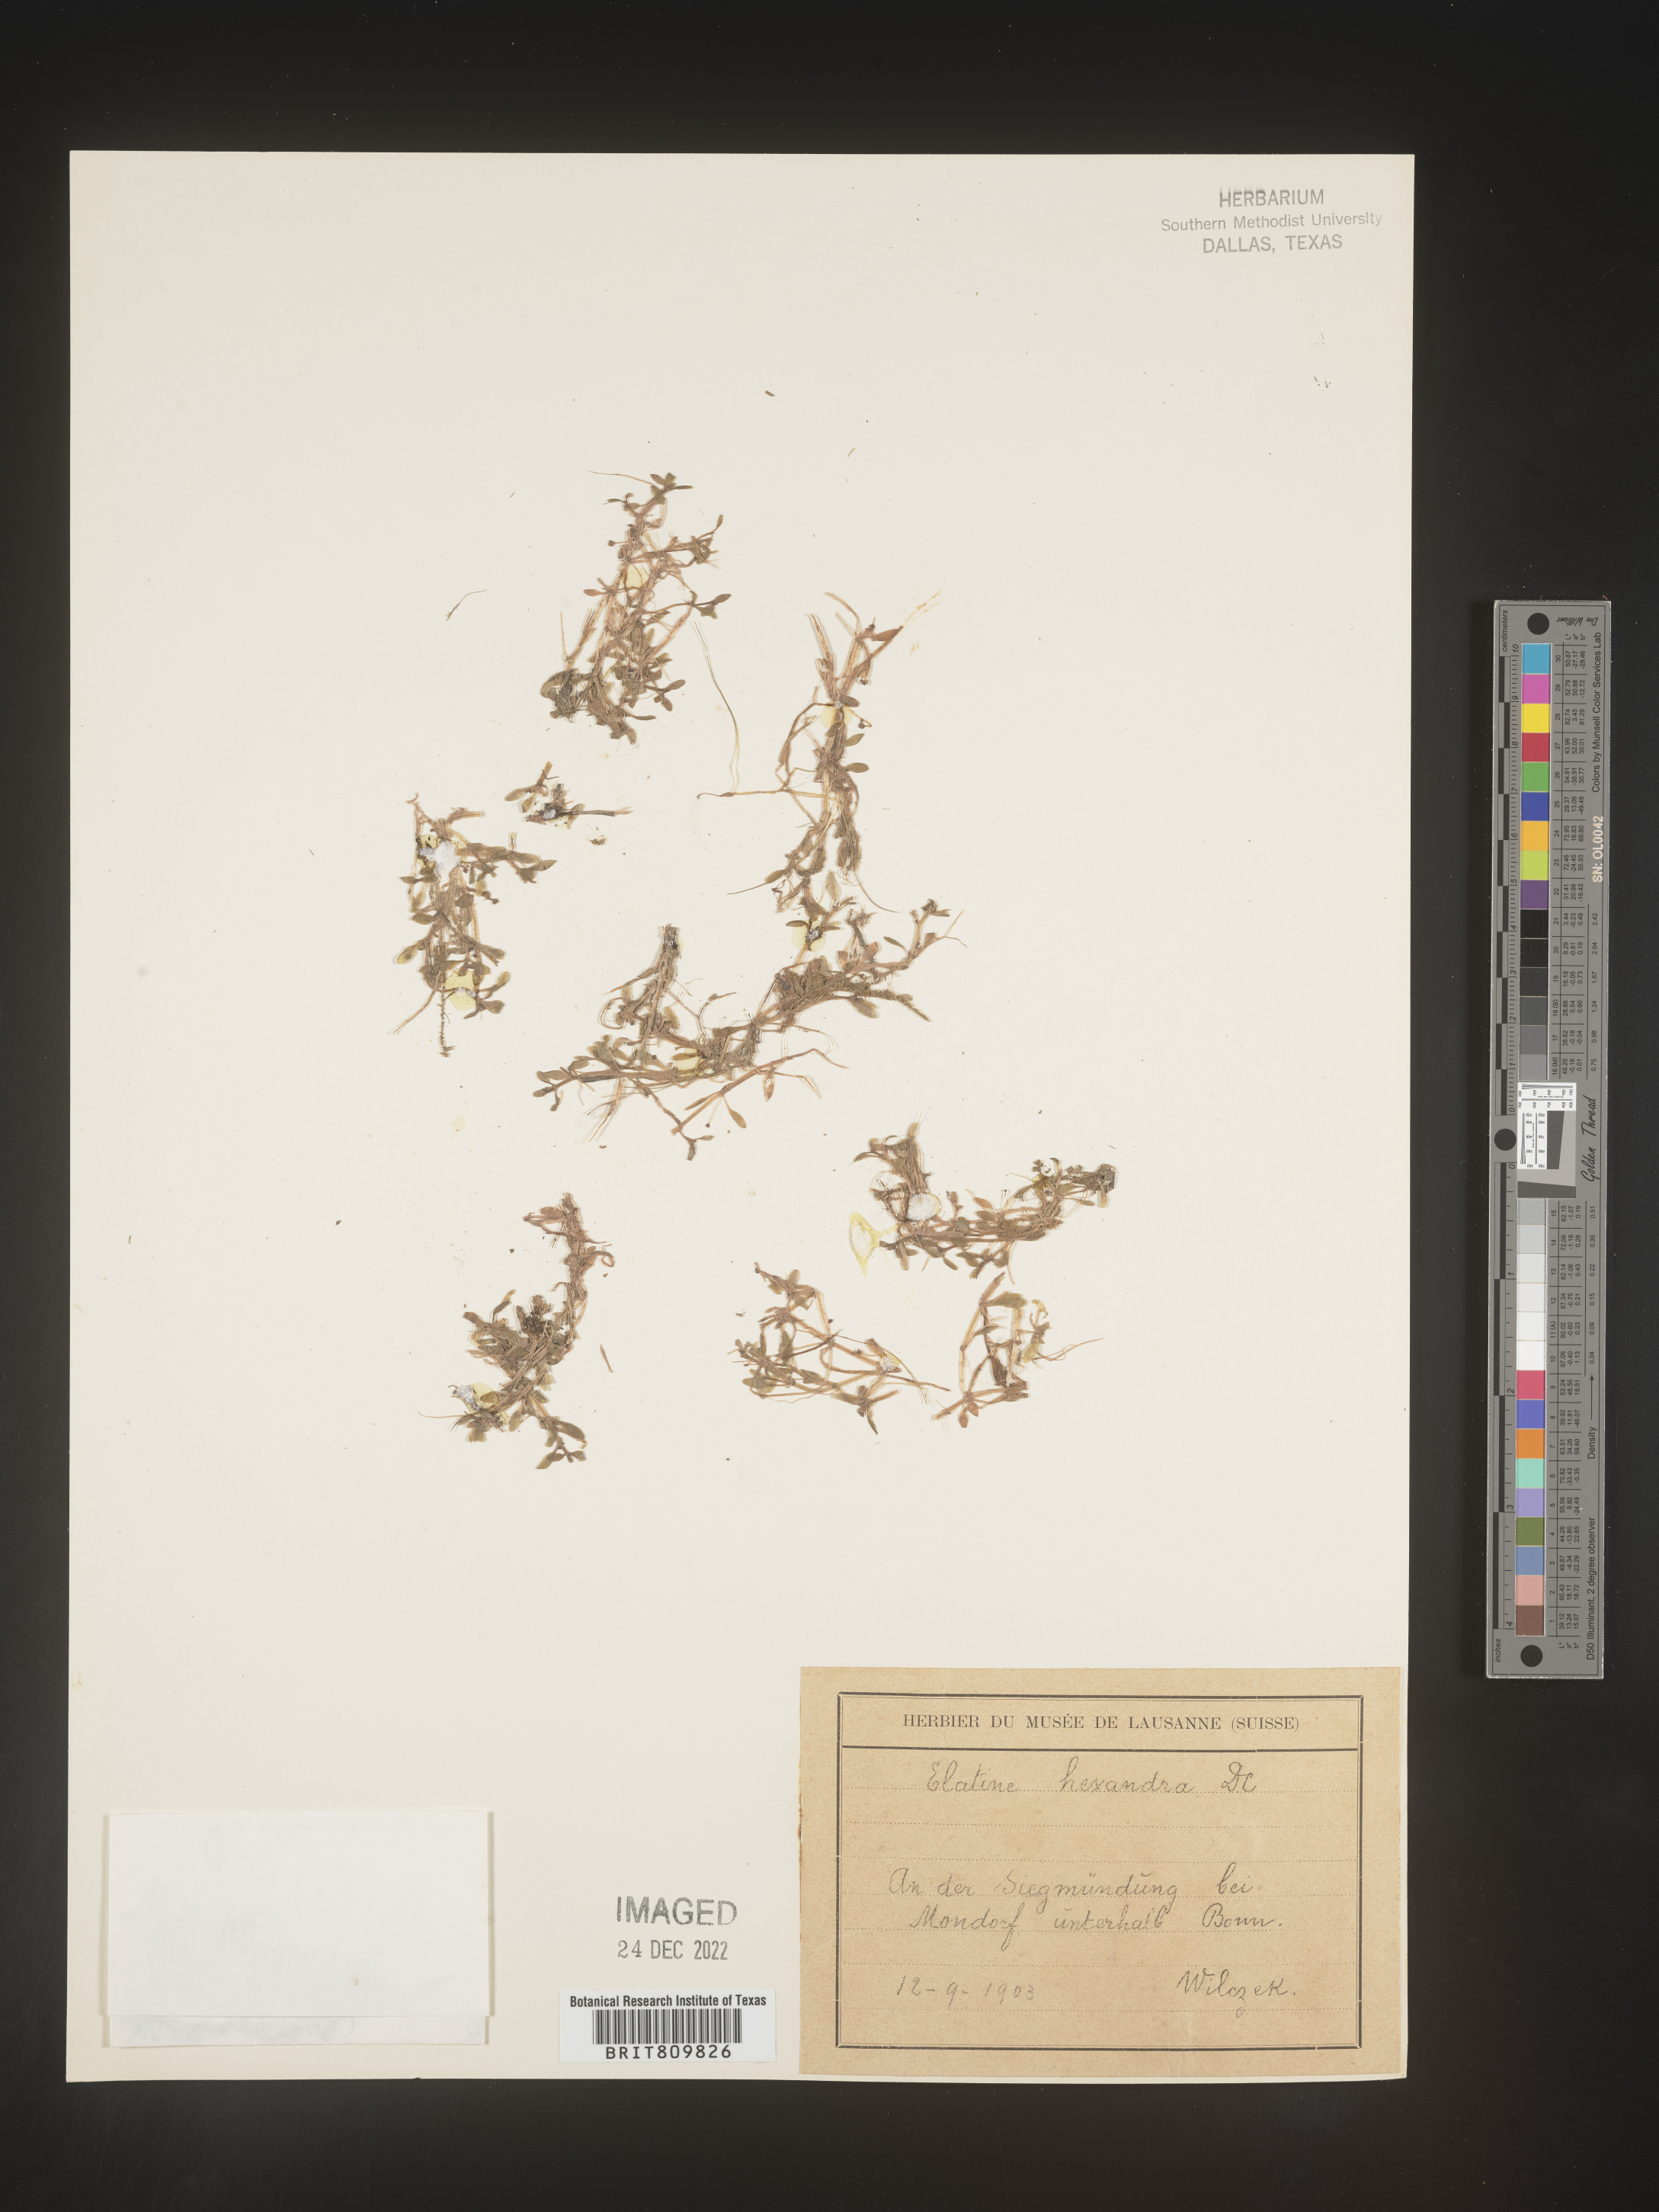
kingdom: Plantae
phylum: Tracheophyta
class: Magnoliopsida
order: Malpighiales
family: Elatinaceae
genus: Elatine
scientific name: Elatine
